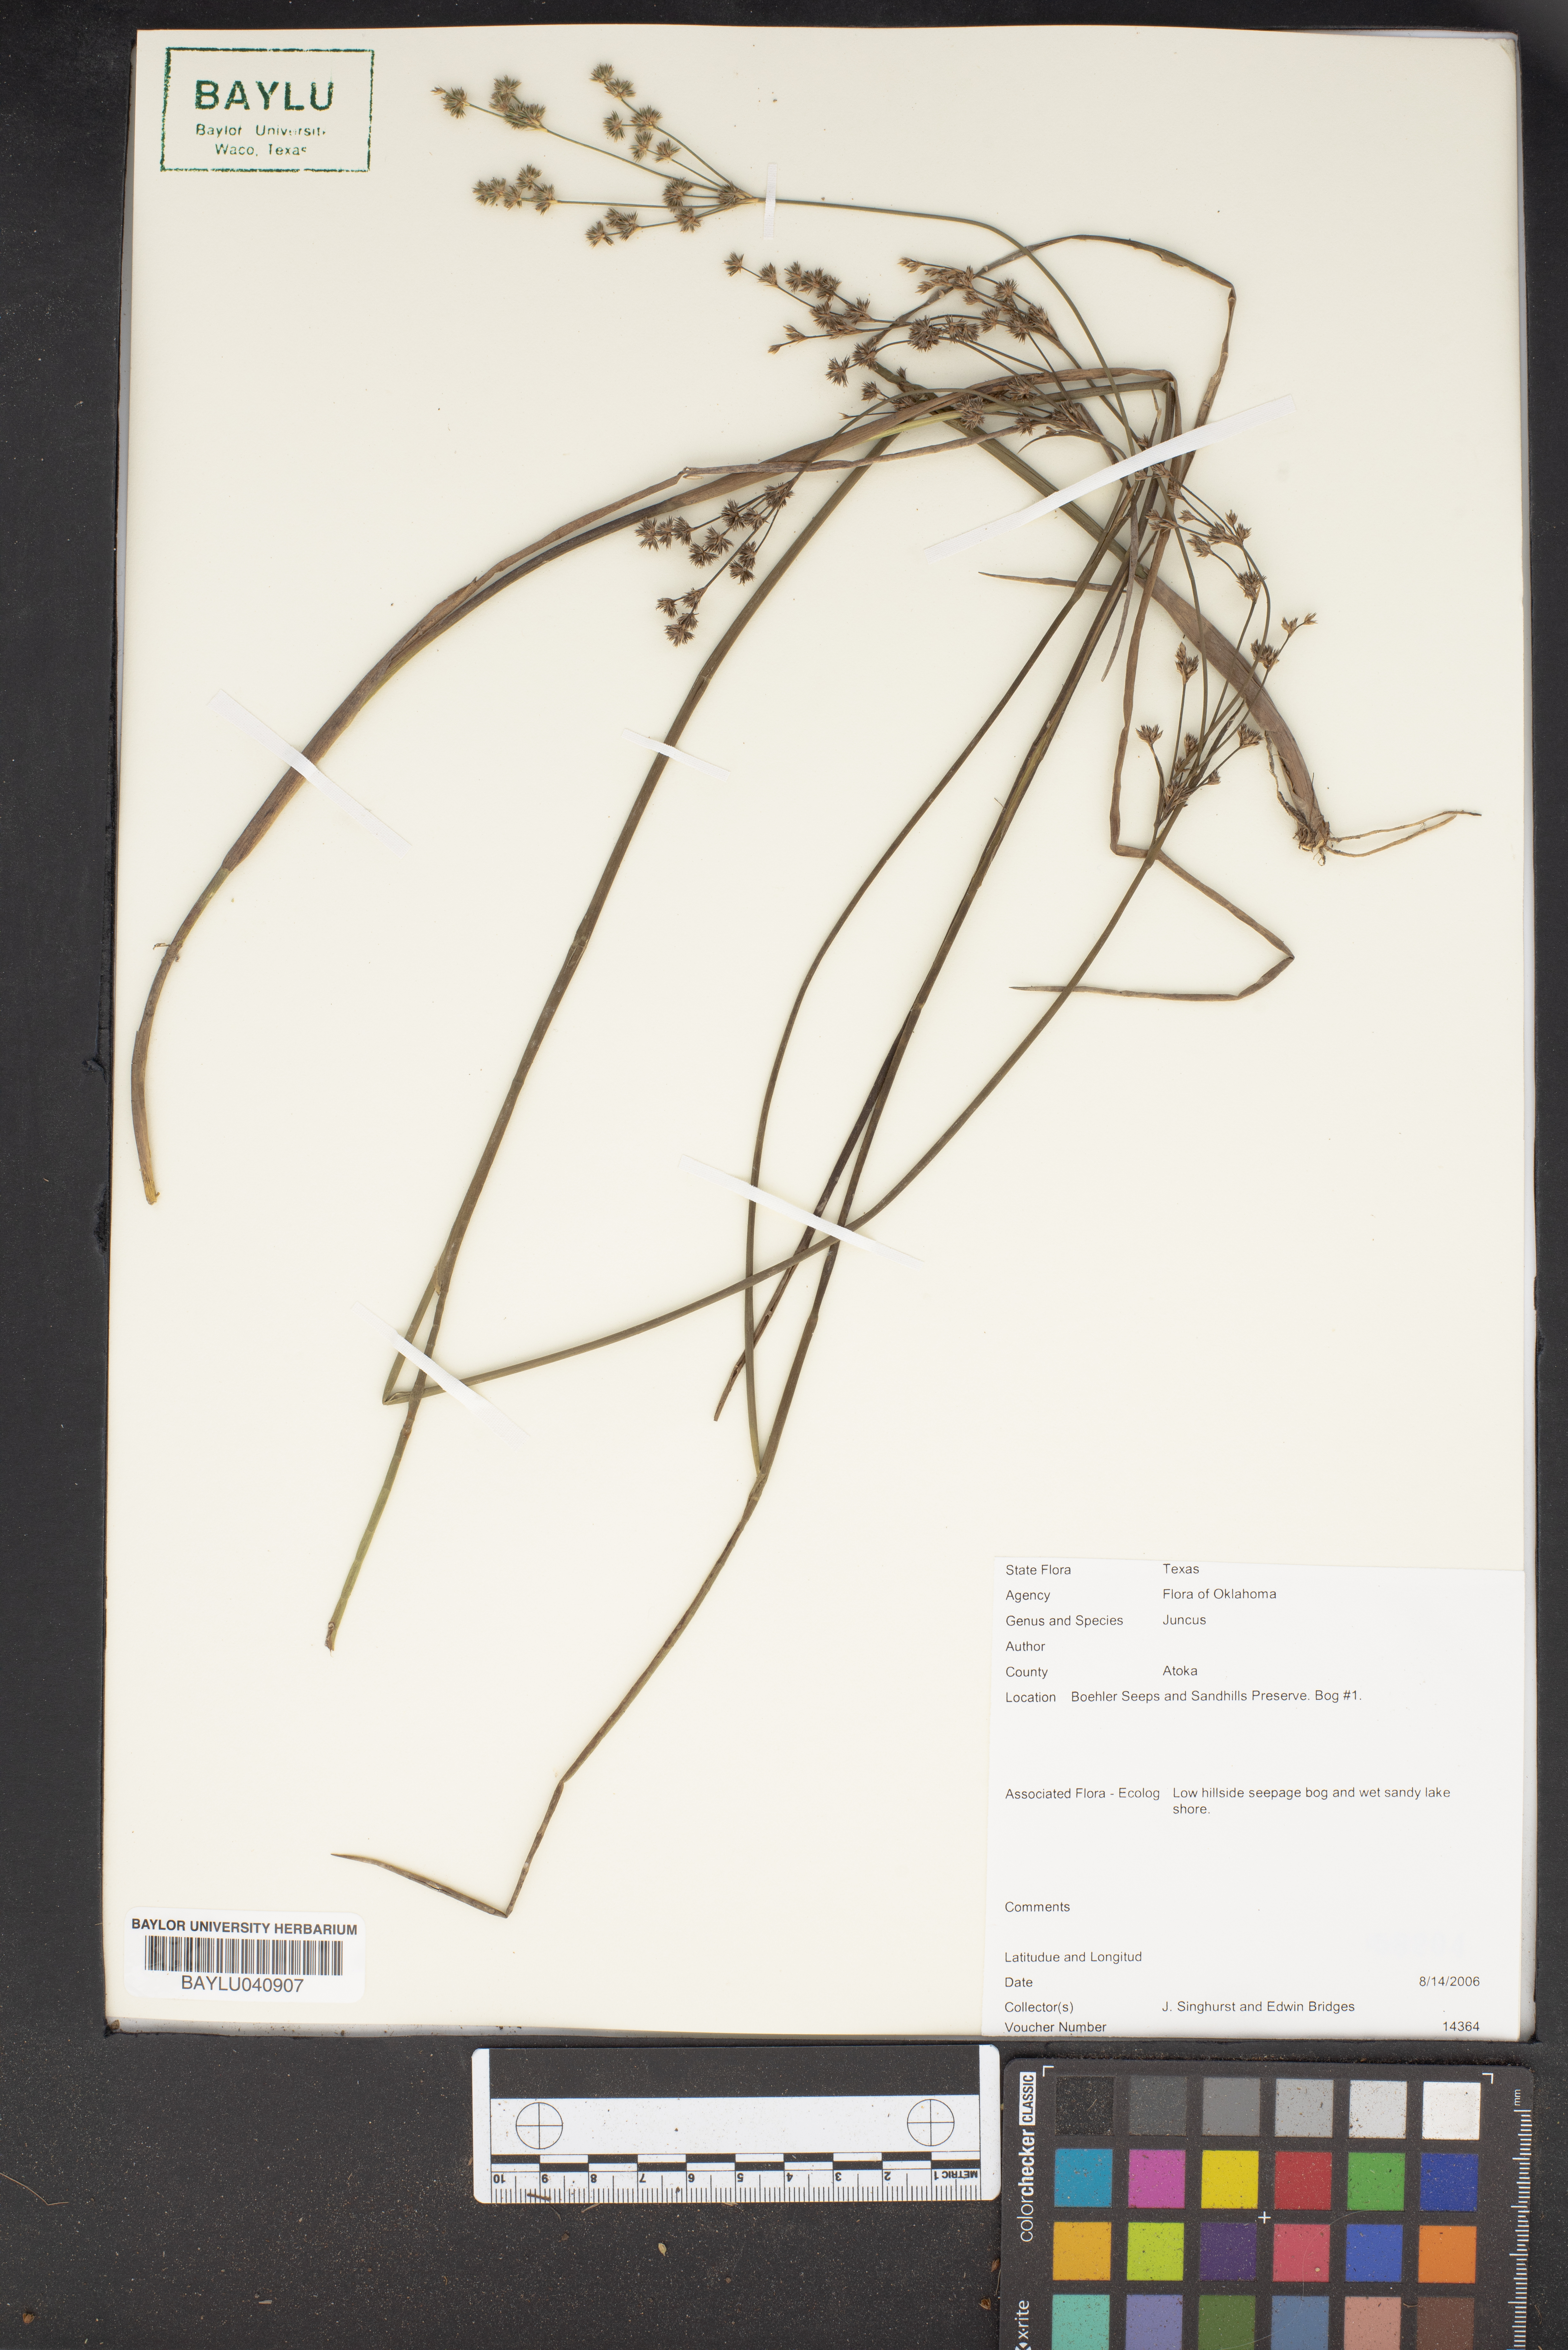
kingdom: Plantae
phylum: Tracheophyta
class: Liliopsida
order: Poales
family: Juncaceae
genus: Juncus
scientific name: Juncus
